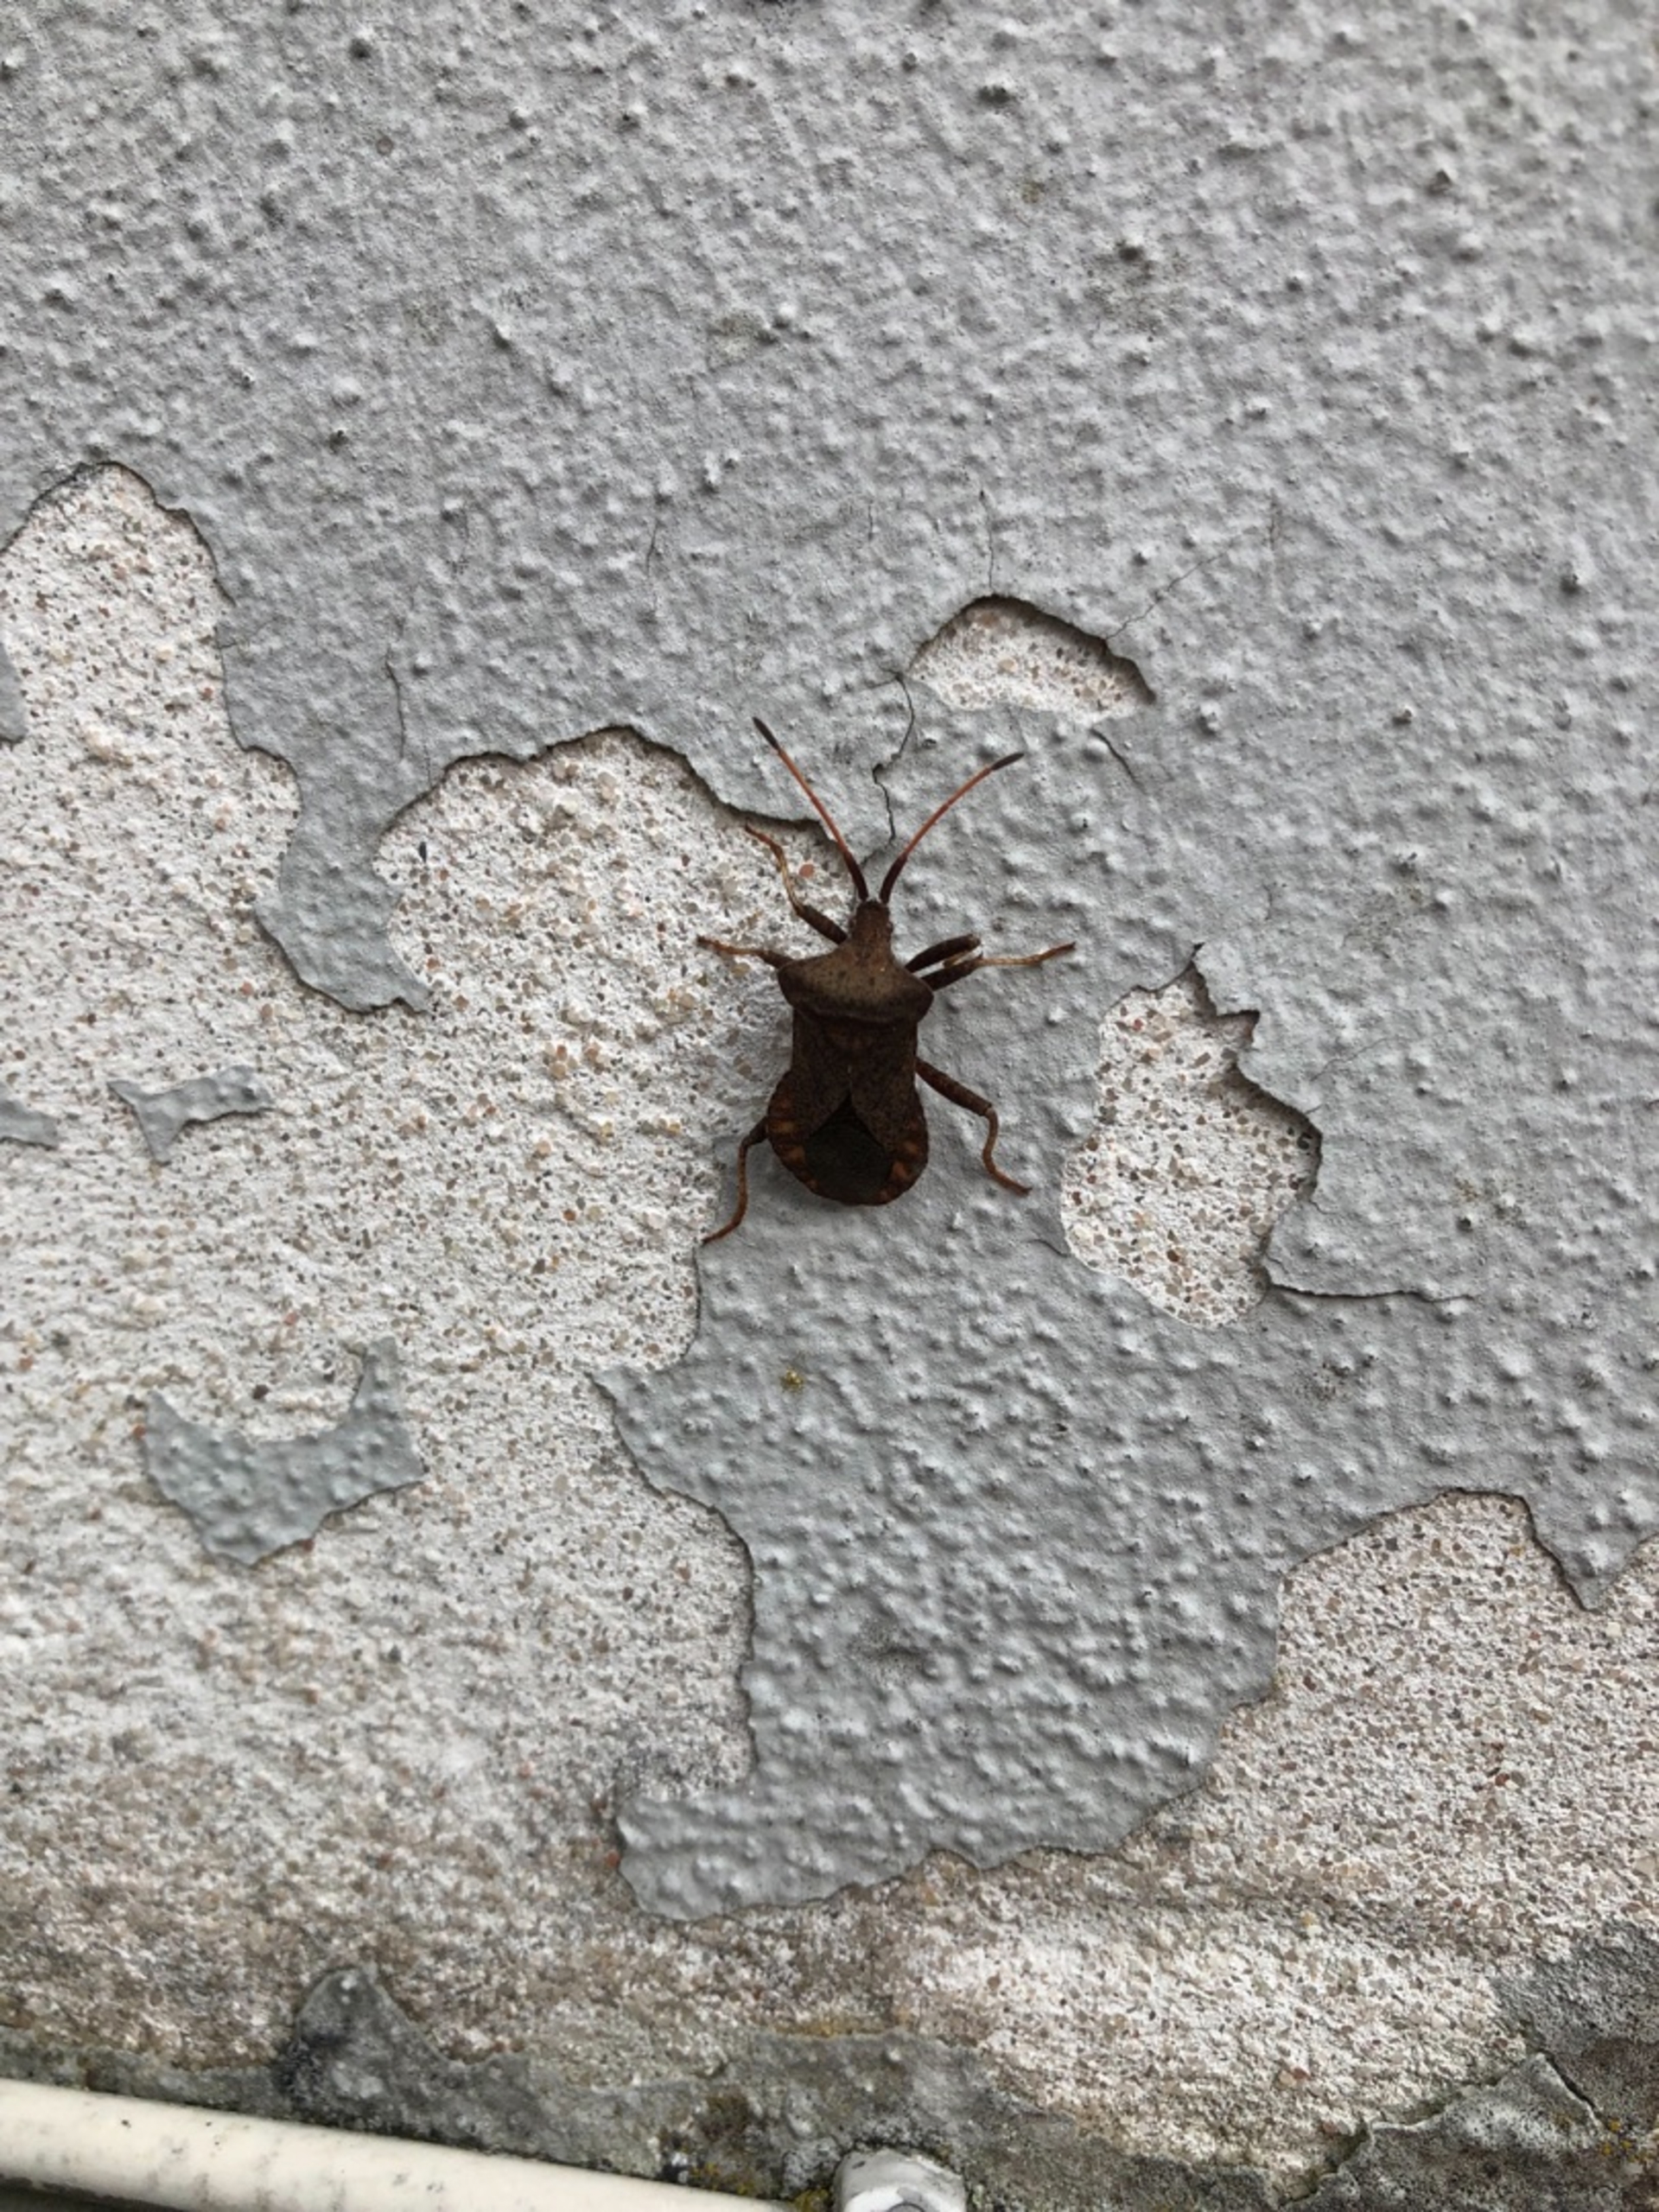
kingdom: Animalia
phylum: Arthropoda
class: Insecta
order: Hemiptera
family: Coreidae
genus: Coreus
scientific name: Coreus marginatus
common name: Skræppetæge
